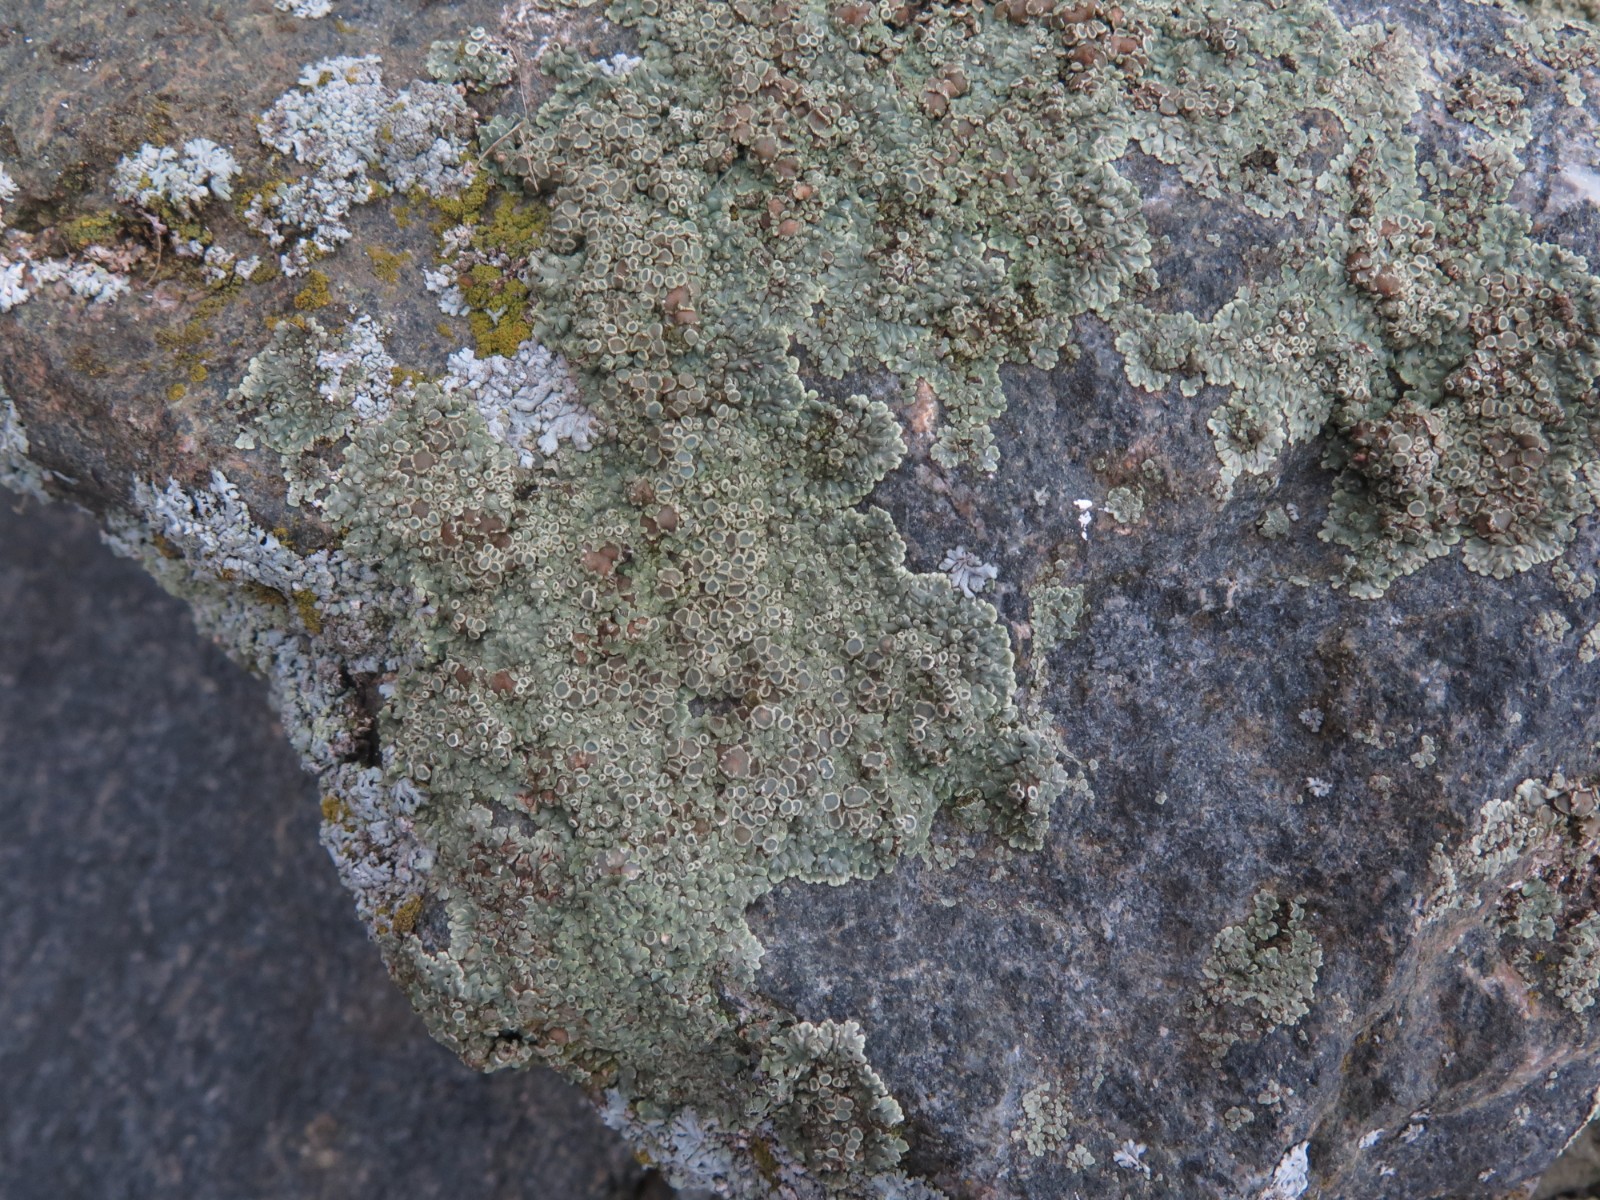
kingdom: Fungi
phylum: Ascomycota
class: Lecanoromycetes
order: Lecanorales
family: Lecanoraceae
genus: Protoparmeliopsis
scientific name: Protoparmeliopsis muralis
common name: randfliget kantskivelav
